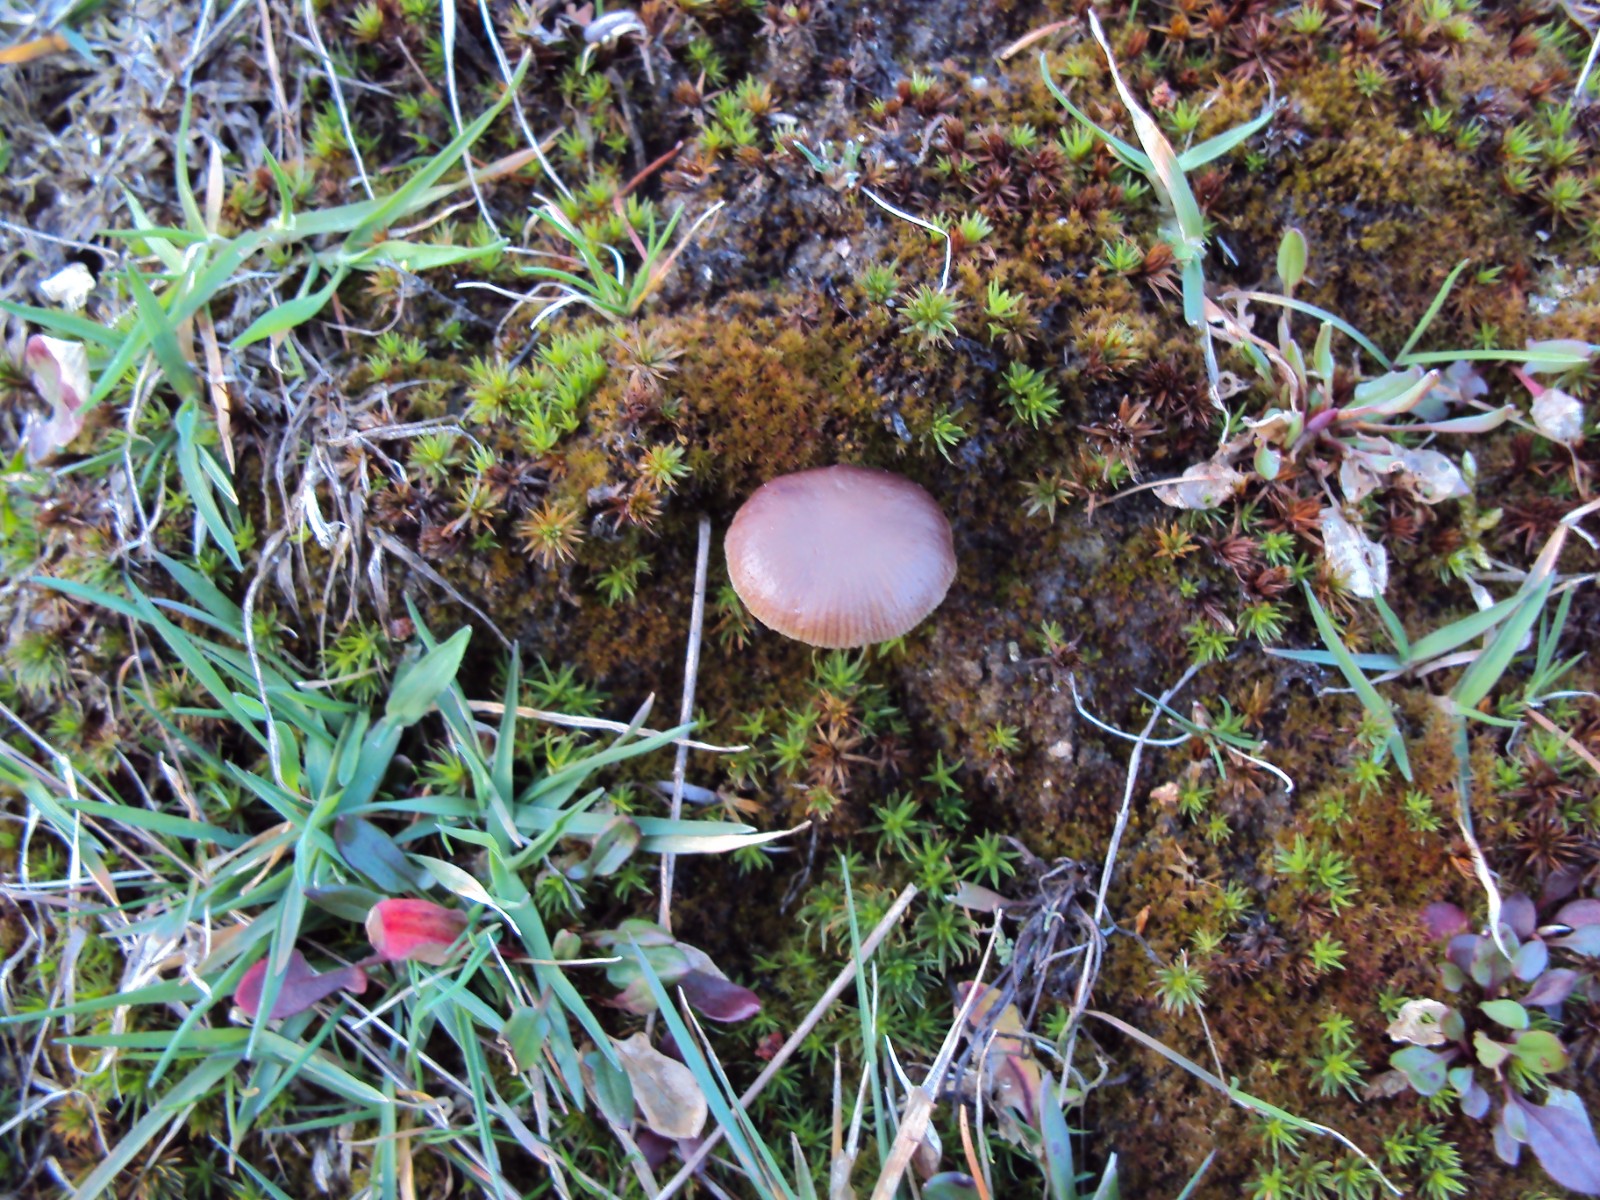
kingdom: Fungi
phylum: Basidiomycota
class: Agaricomycetes
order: Agaricales
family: Strophariaceae
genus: Deconica
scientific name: Deconica montana
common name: rødbrun stråhat
